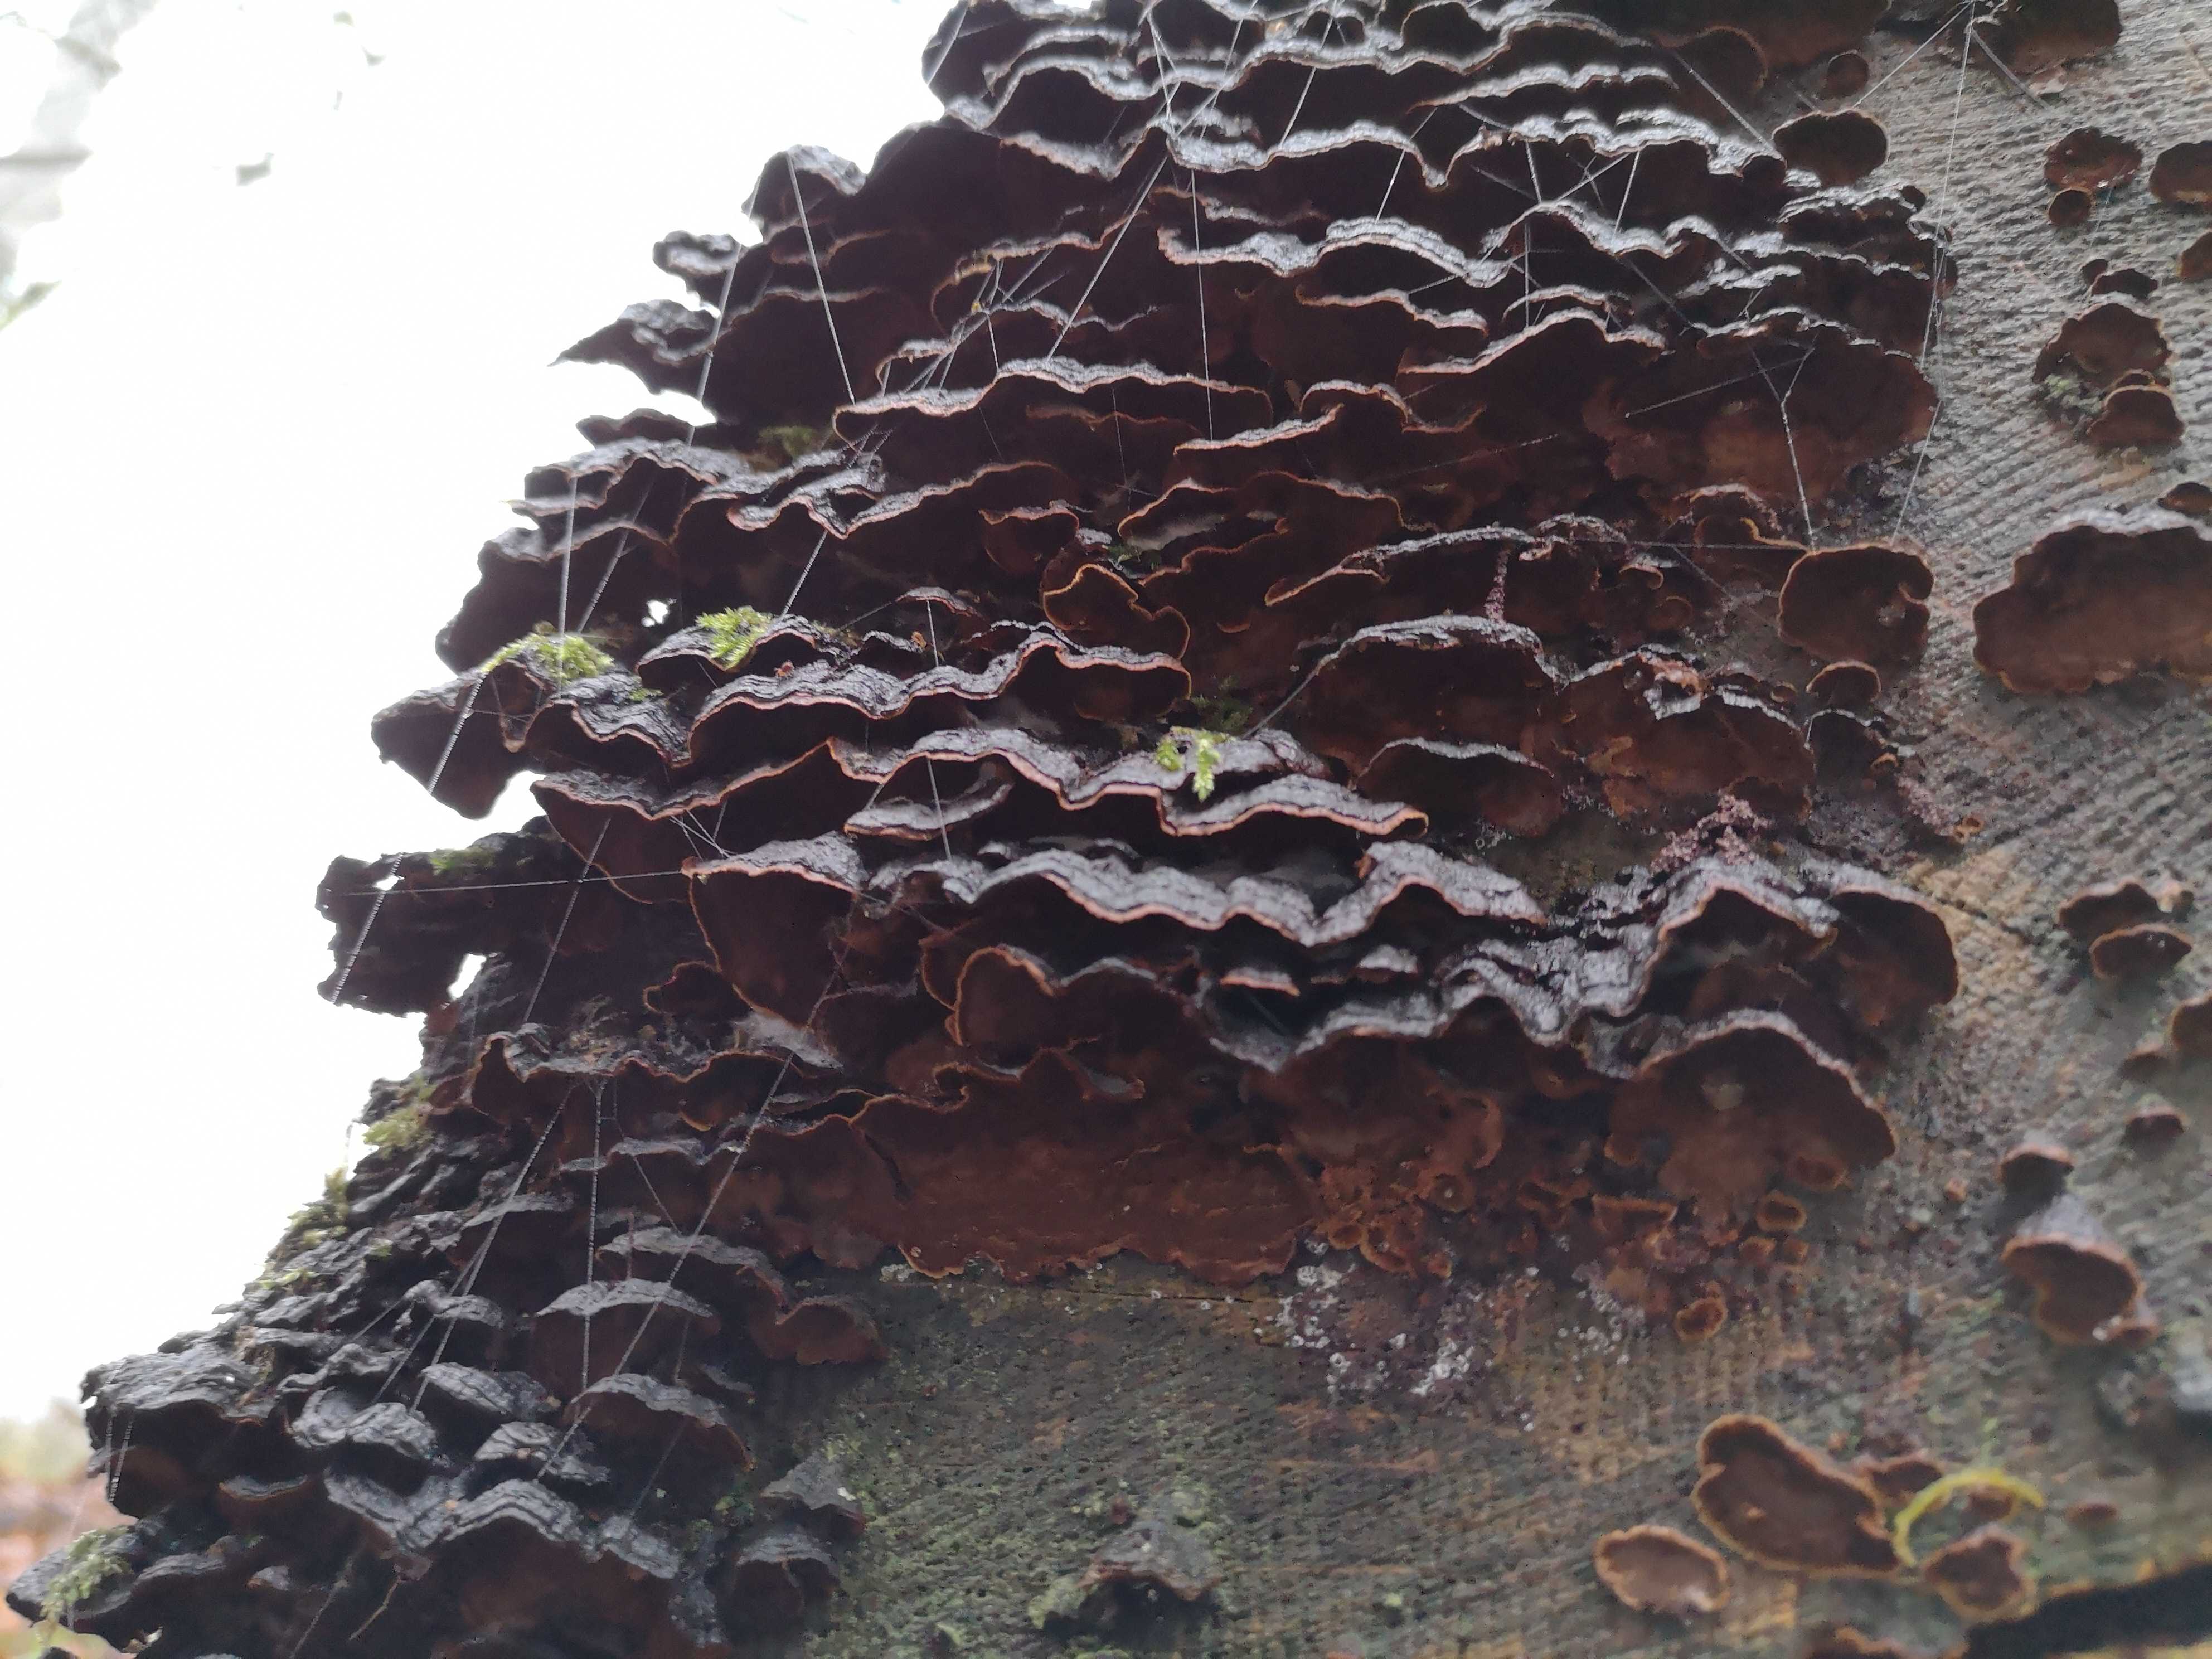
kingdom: Fungi
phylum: Basidiomycota
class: Agaricomycetes
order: Hymenochaetales
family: Hymenochaetaceae
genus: Hymenochaete
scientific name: Hymenochaete rubiginosa
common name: stiv ruslædersvamp
